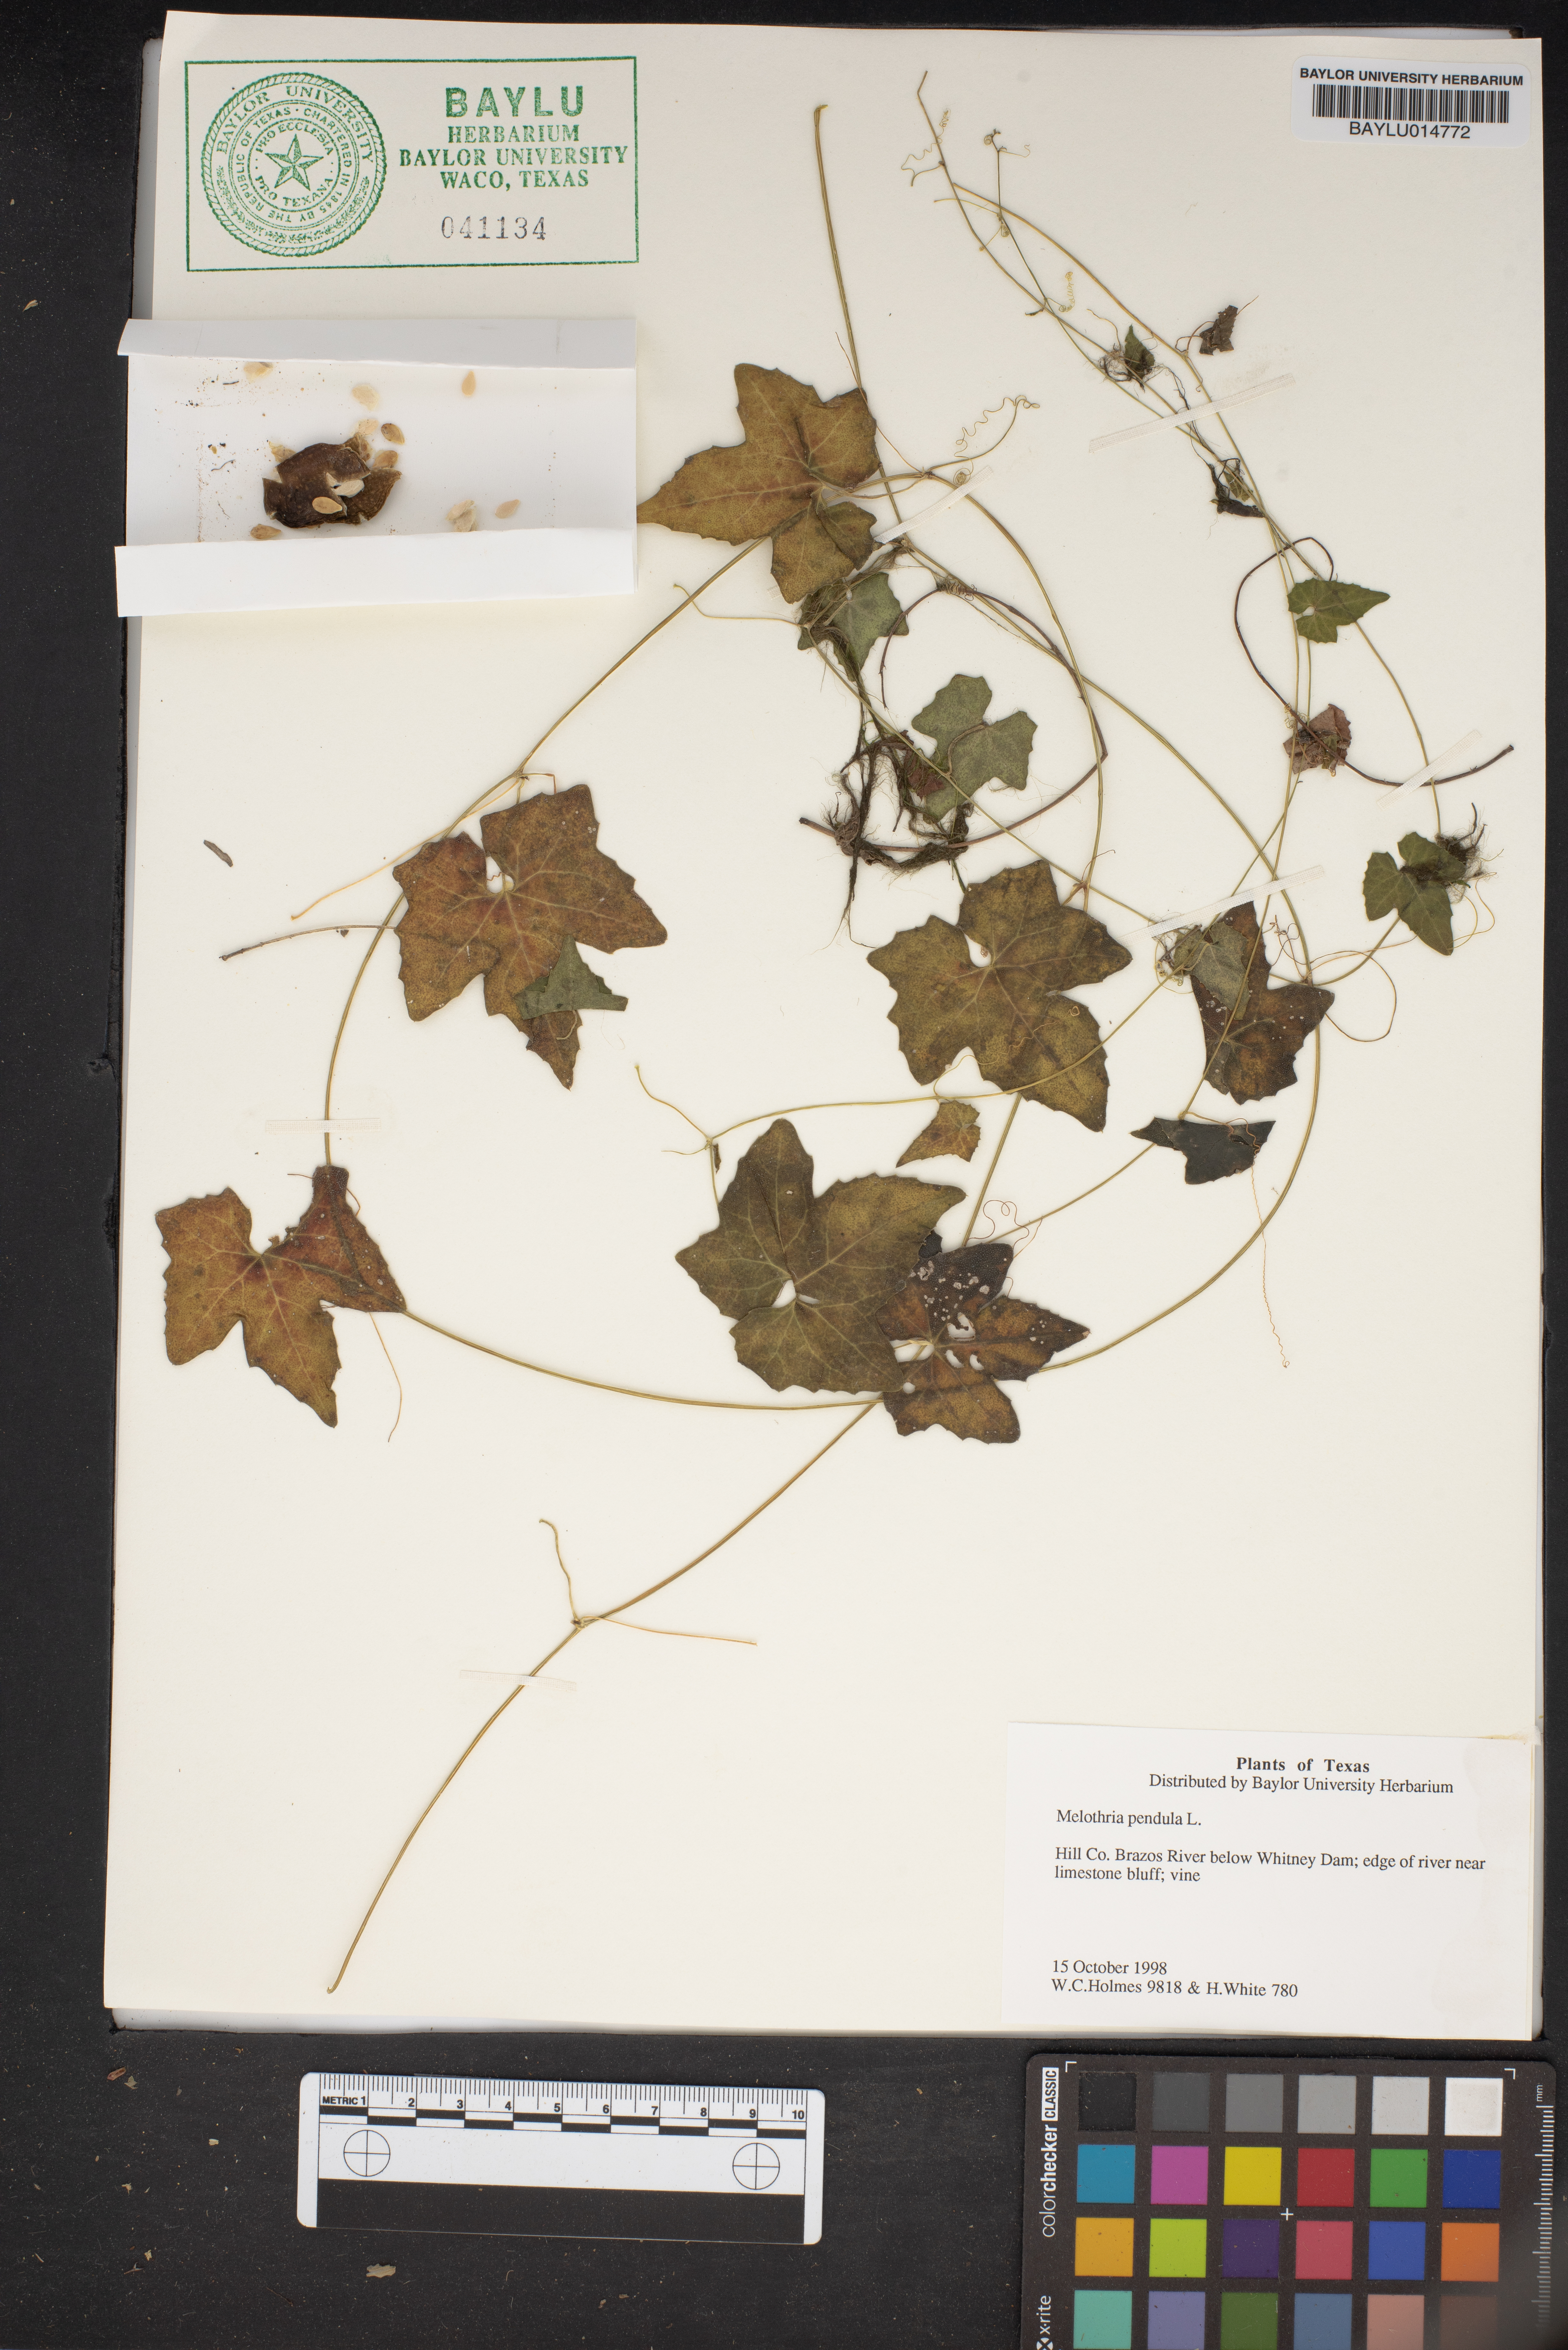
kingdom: Plantae
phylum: Tracheophyta
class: Magnoliopsida
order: Cucurbitales
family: Cucurbitaceae
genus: Melothria
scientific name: Melothria pendula
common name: Creeping-cucumber
